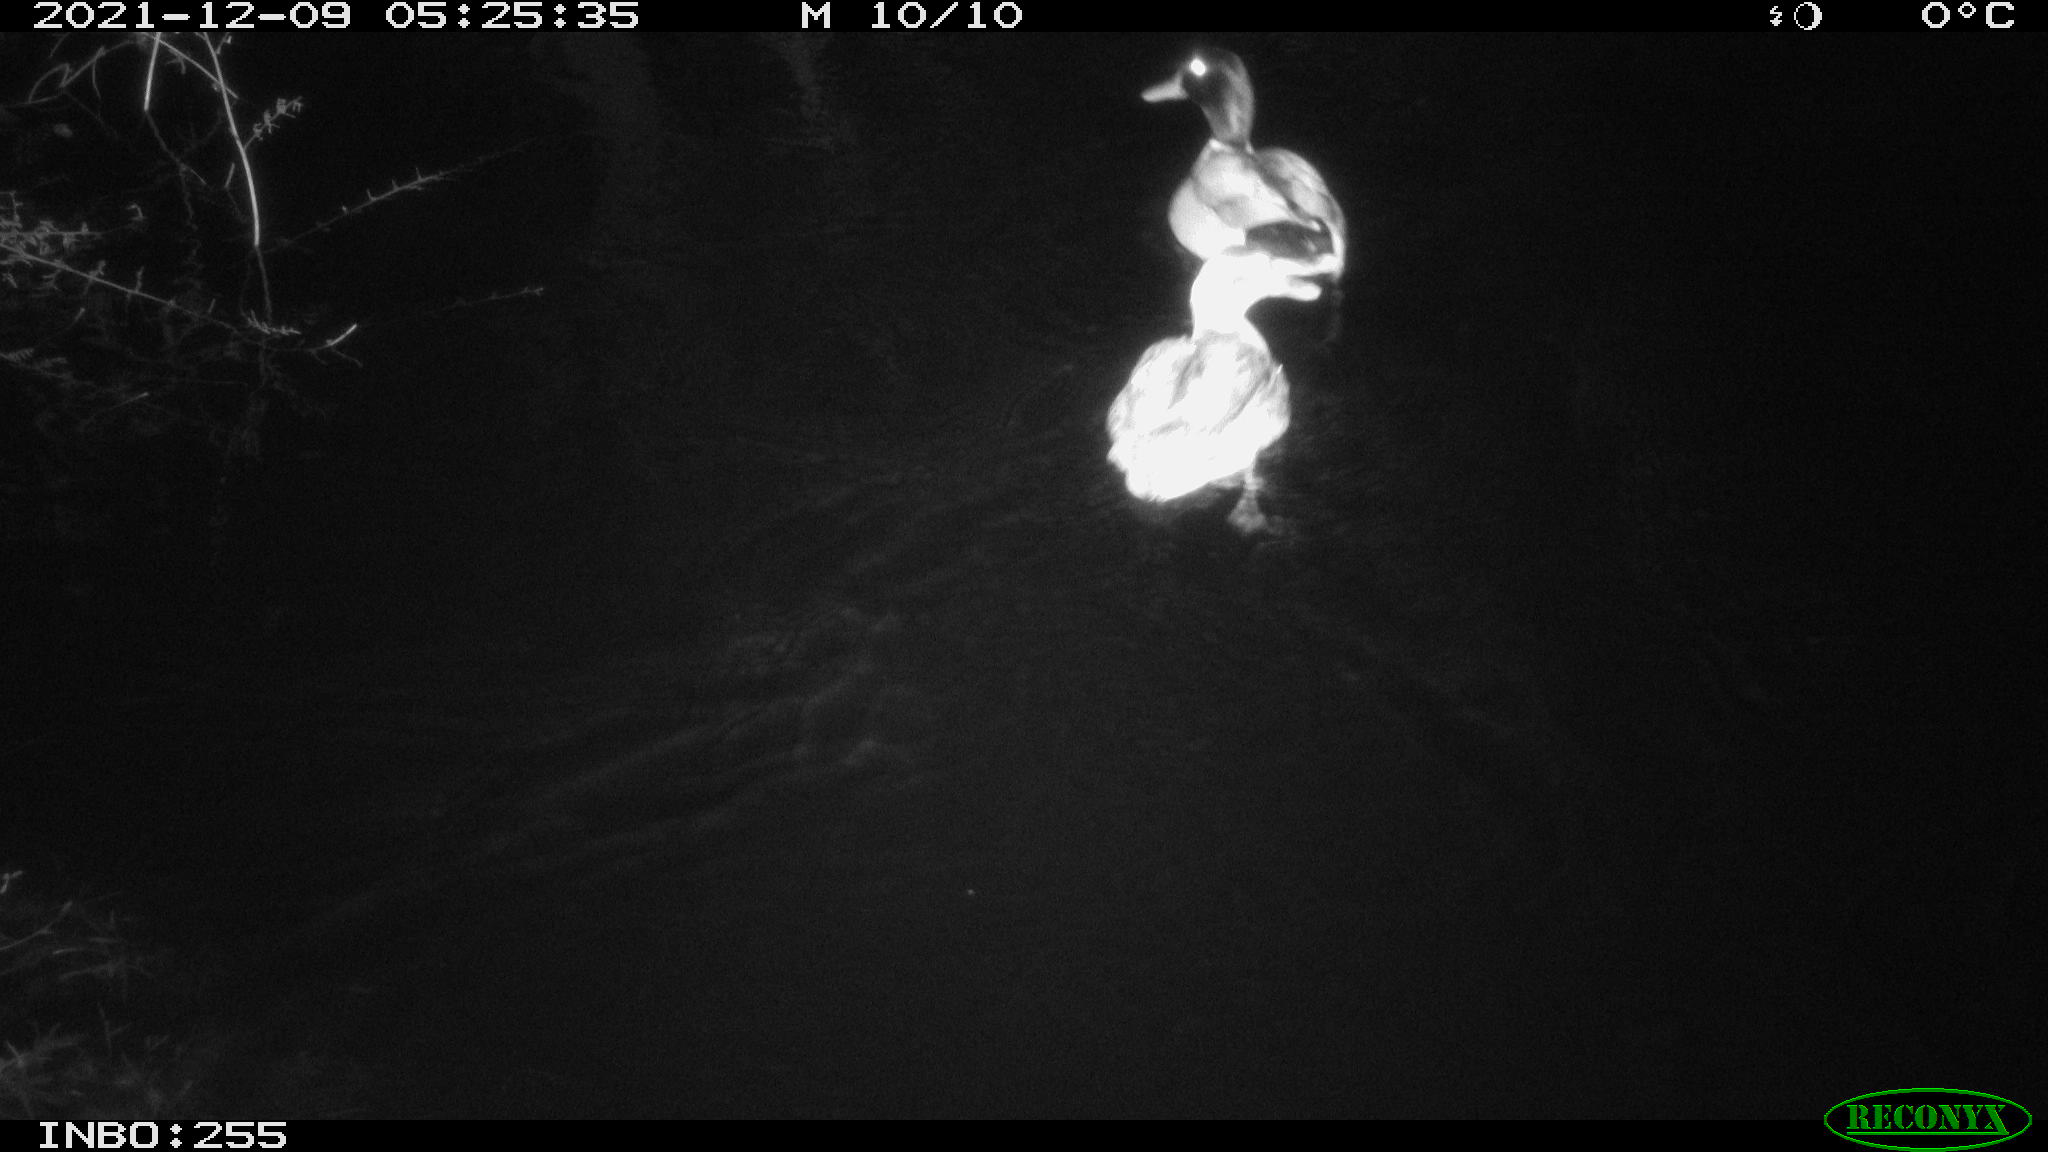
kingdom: Animalia
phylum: Chordata
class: Aves
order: Anseriformes
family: Anatidae
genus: Anas
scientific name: Anas
